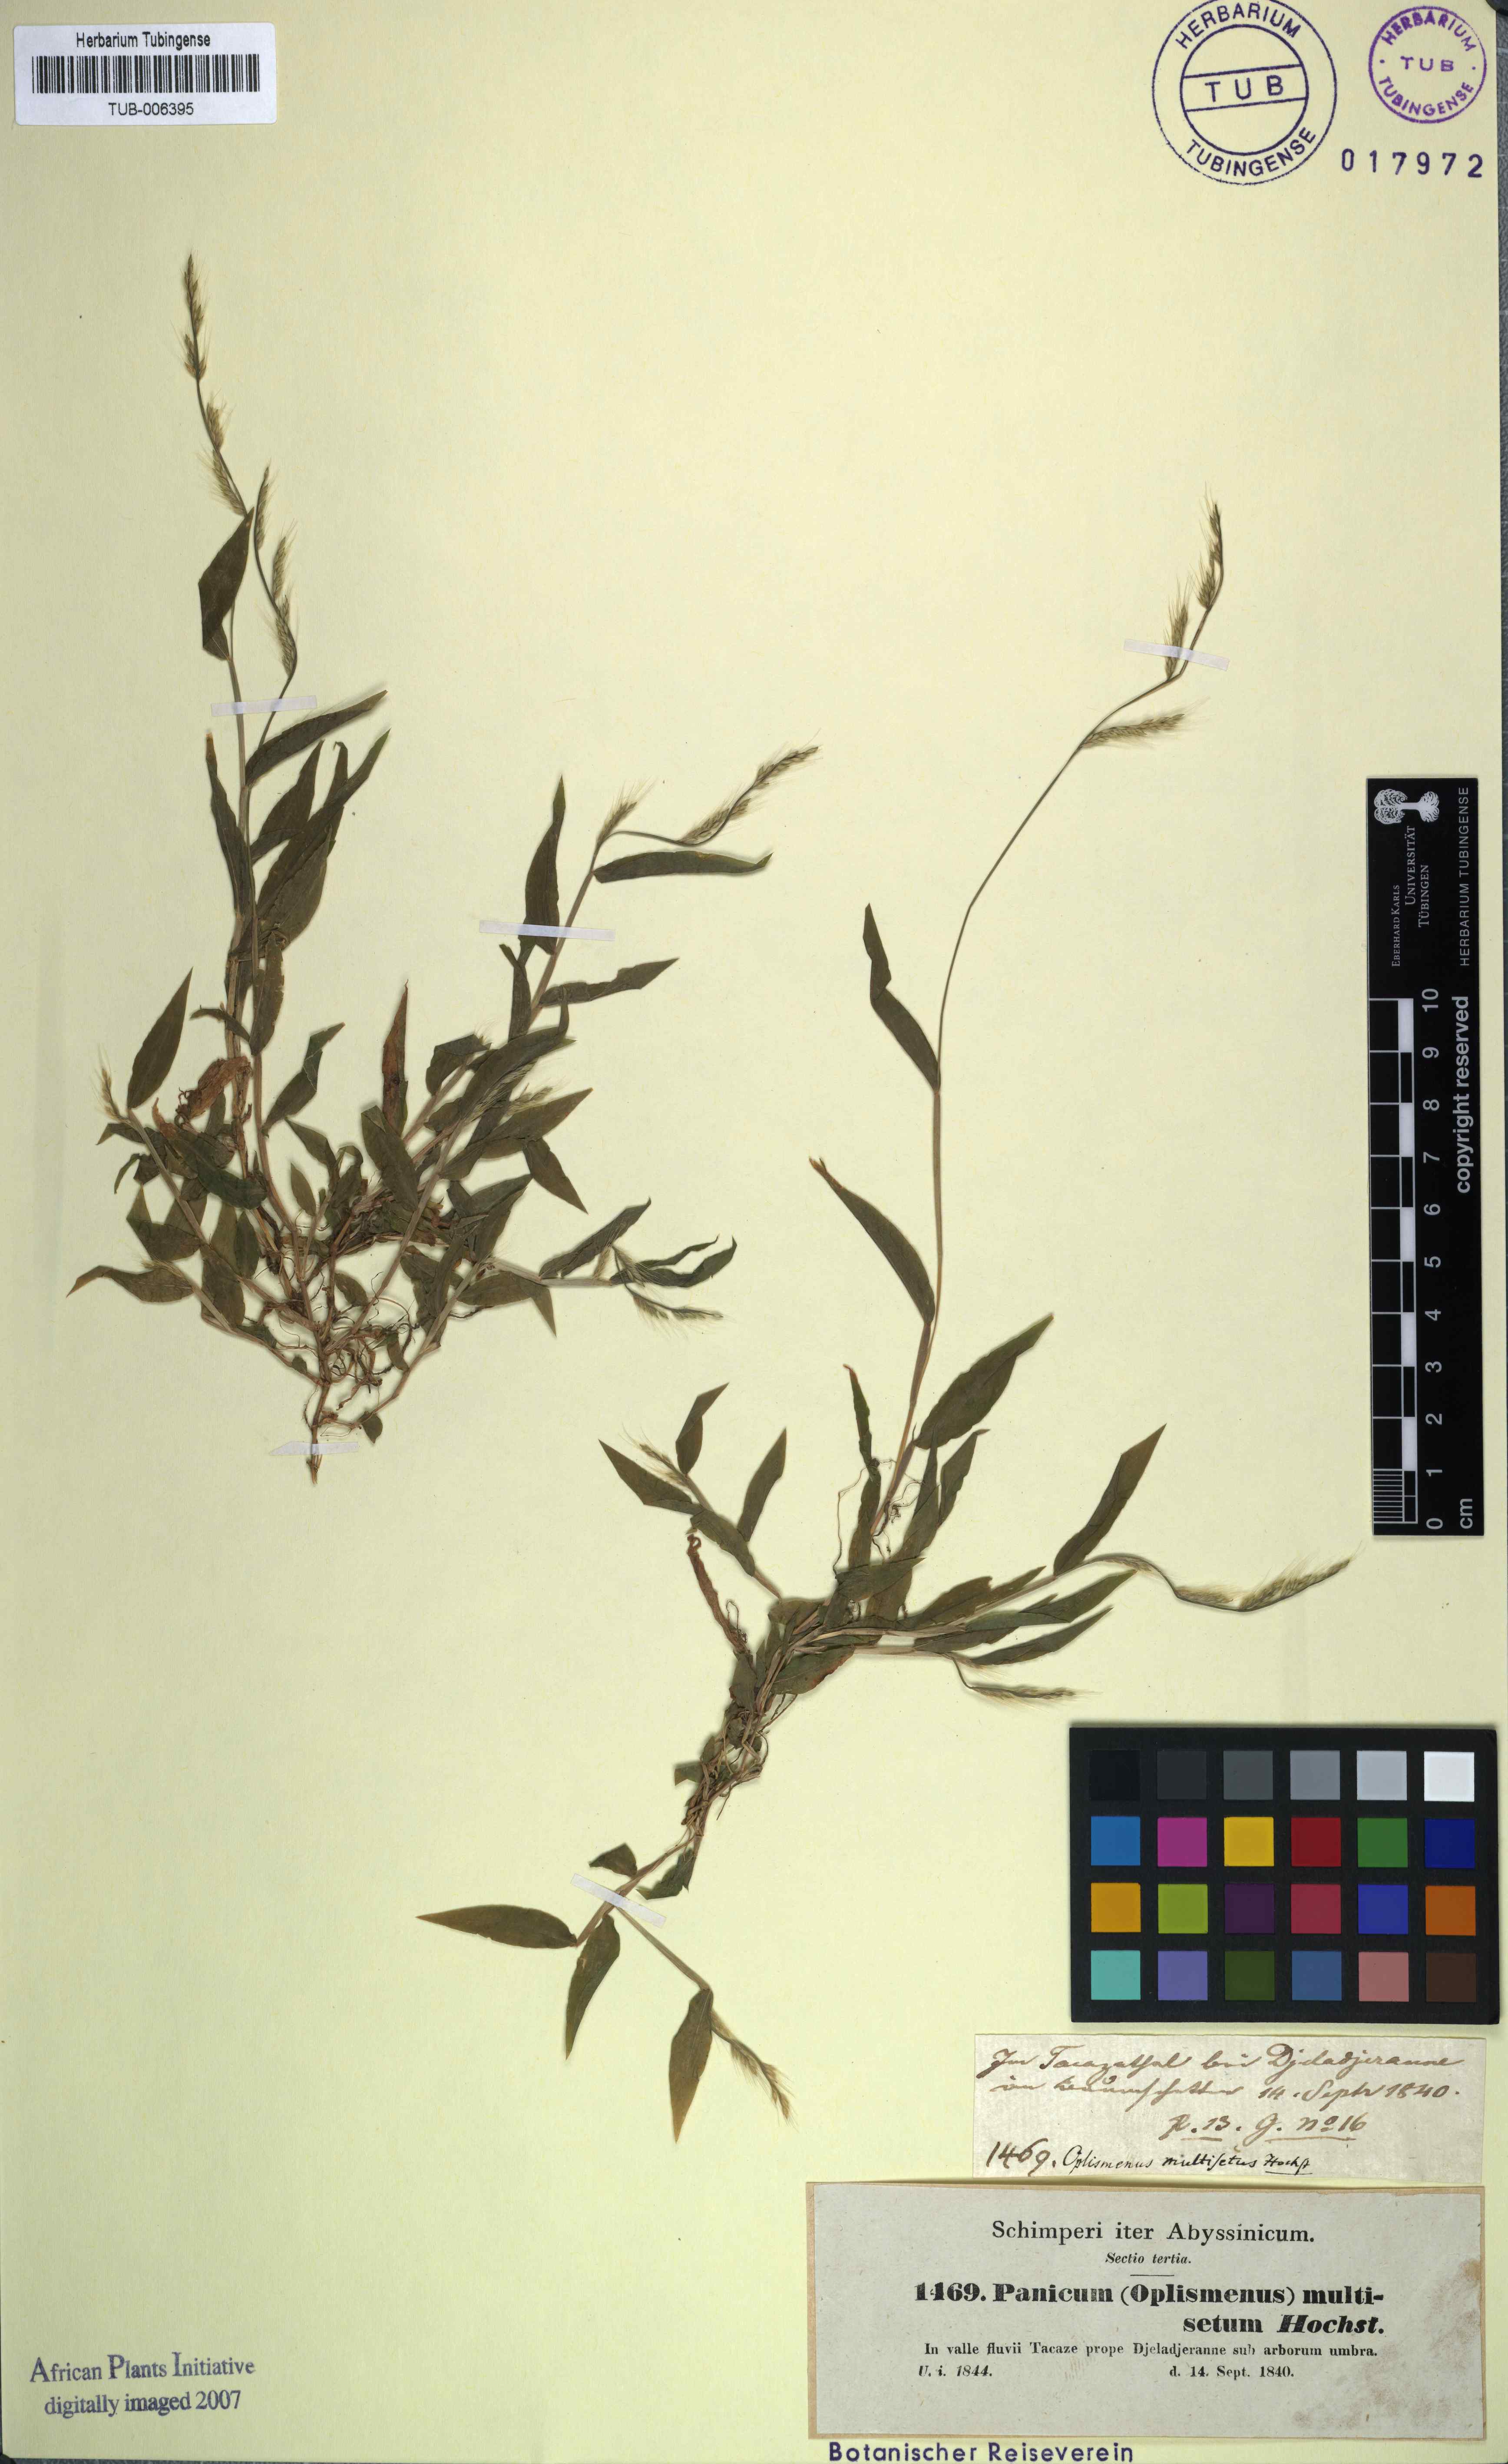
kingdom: Plantae
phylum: Tracheophyta
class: Liliopsida
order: Poales
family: Poaceae
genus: Oplismenus
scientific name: Oplismenus burmanni
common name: Burmann's basketgrass
